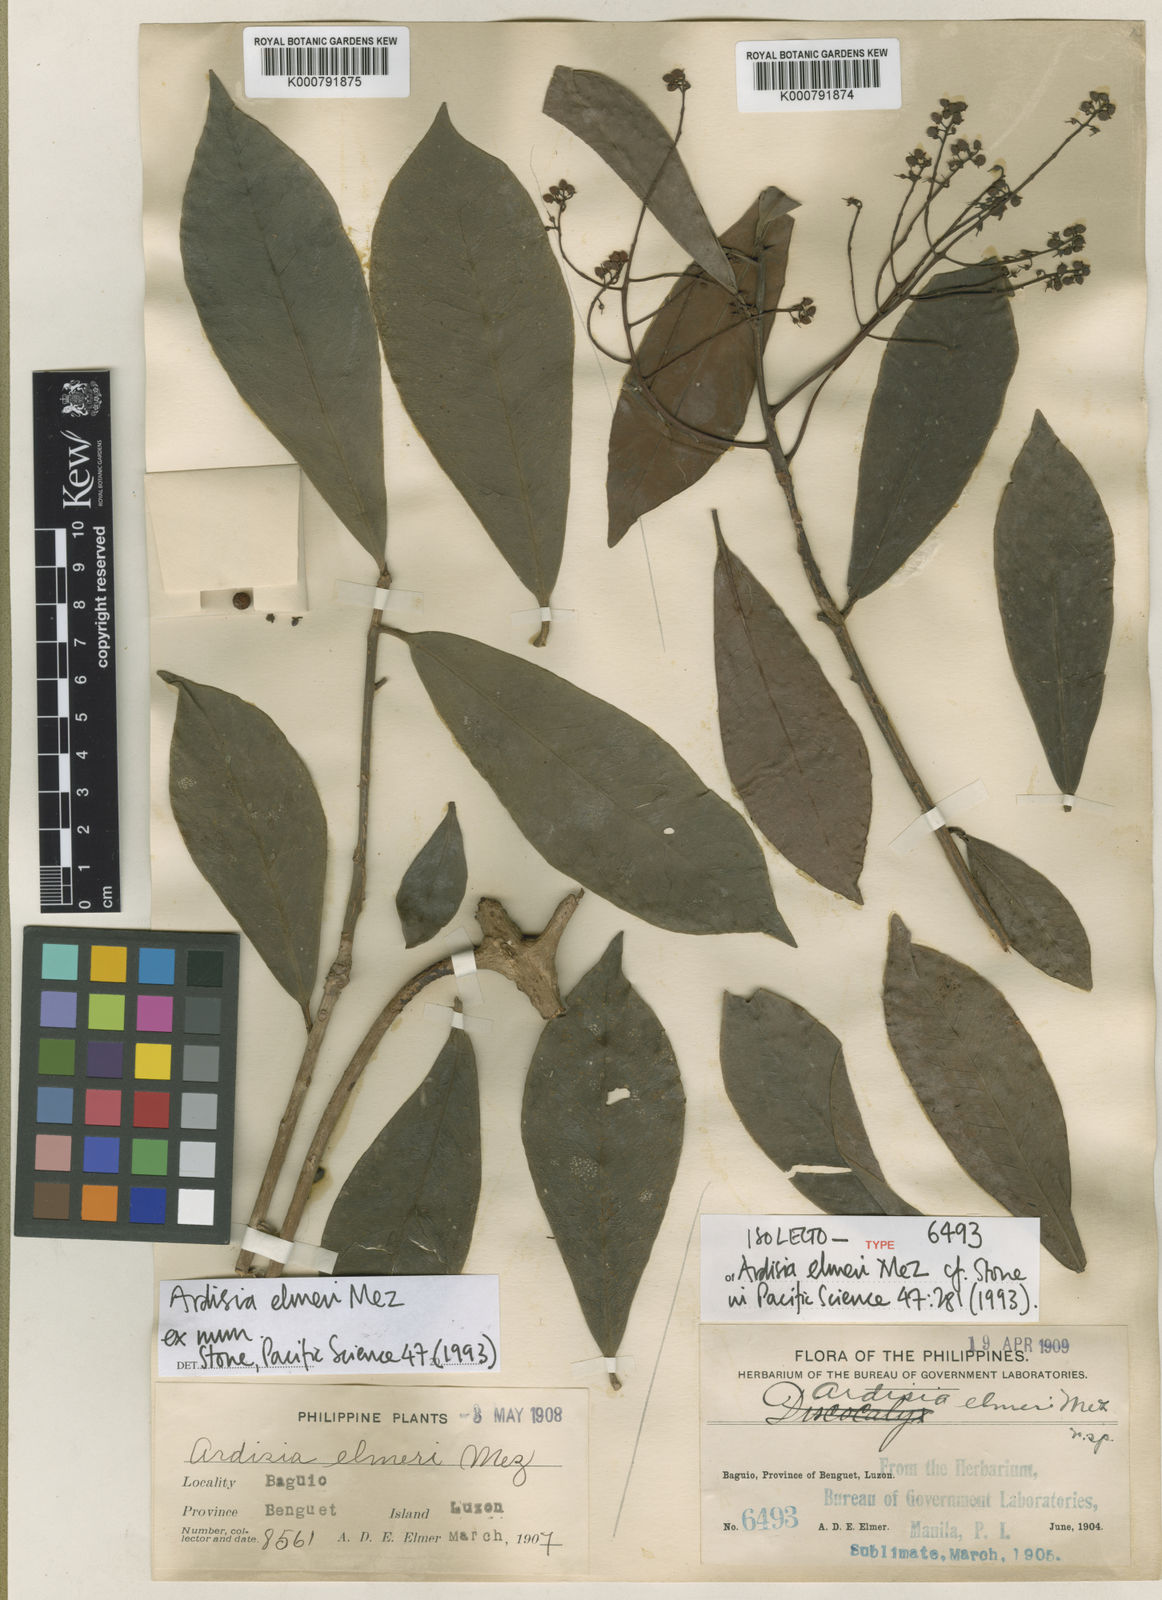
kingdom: Plantae
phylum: Tracheophyta
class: Magnoliopsida
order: Ericales
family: Primulaceae
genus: Ardisia
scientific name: Ardisia elmeri
